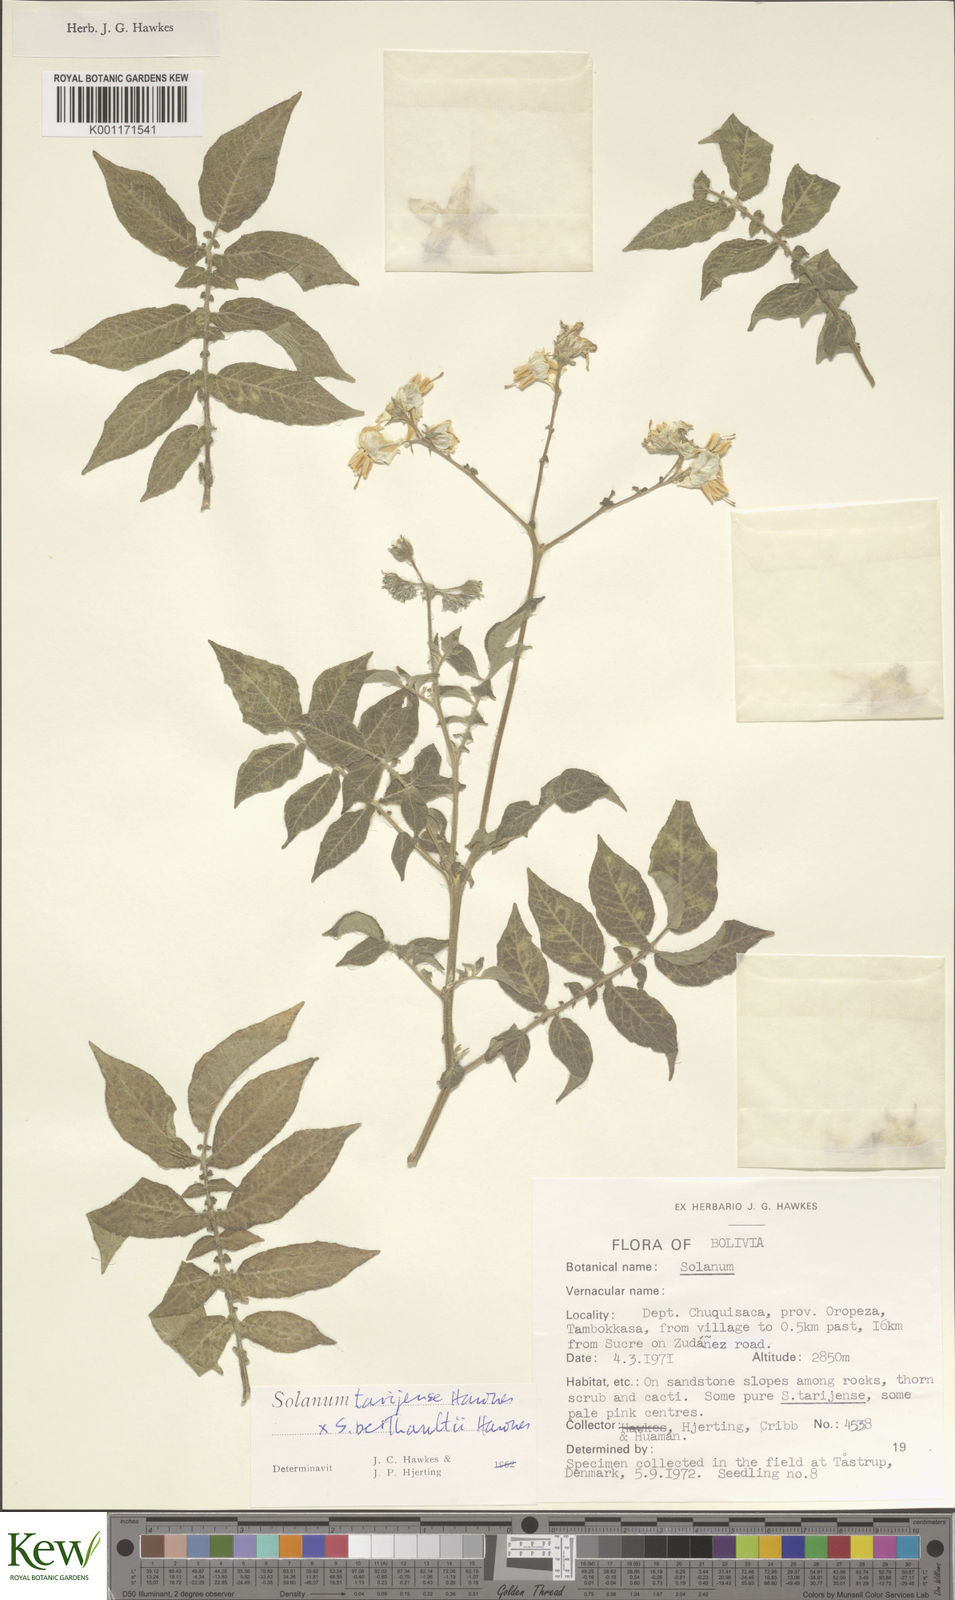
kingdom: Plantae
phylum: Tracheophyta
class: Magnoliopsida
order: Solanales
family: Solanaceae
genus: Solanum
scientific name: Solanum tarijense
